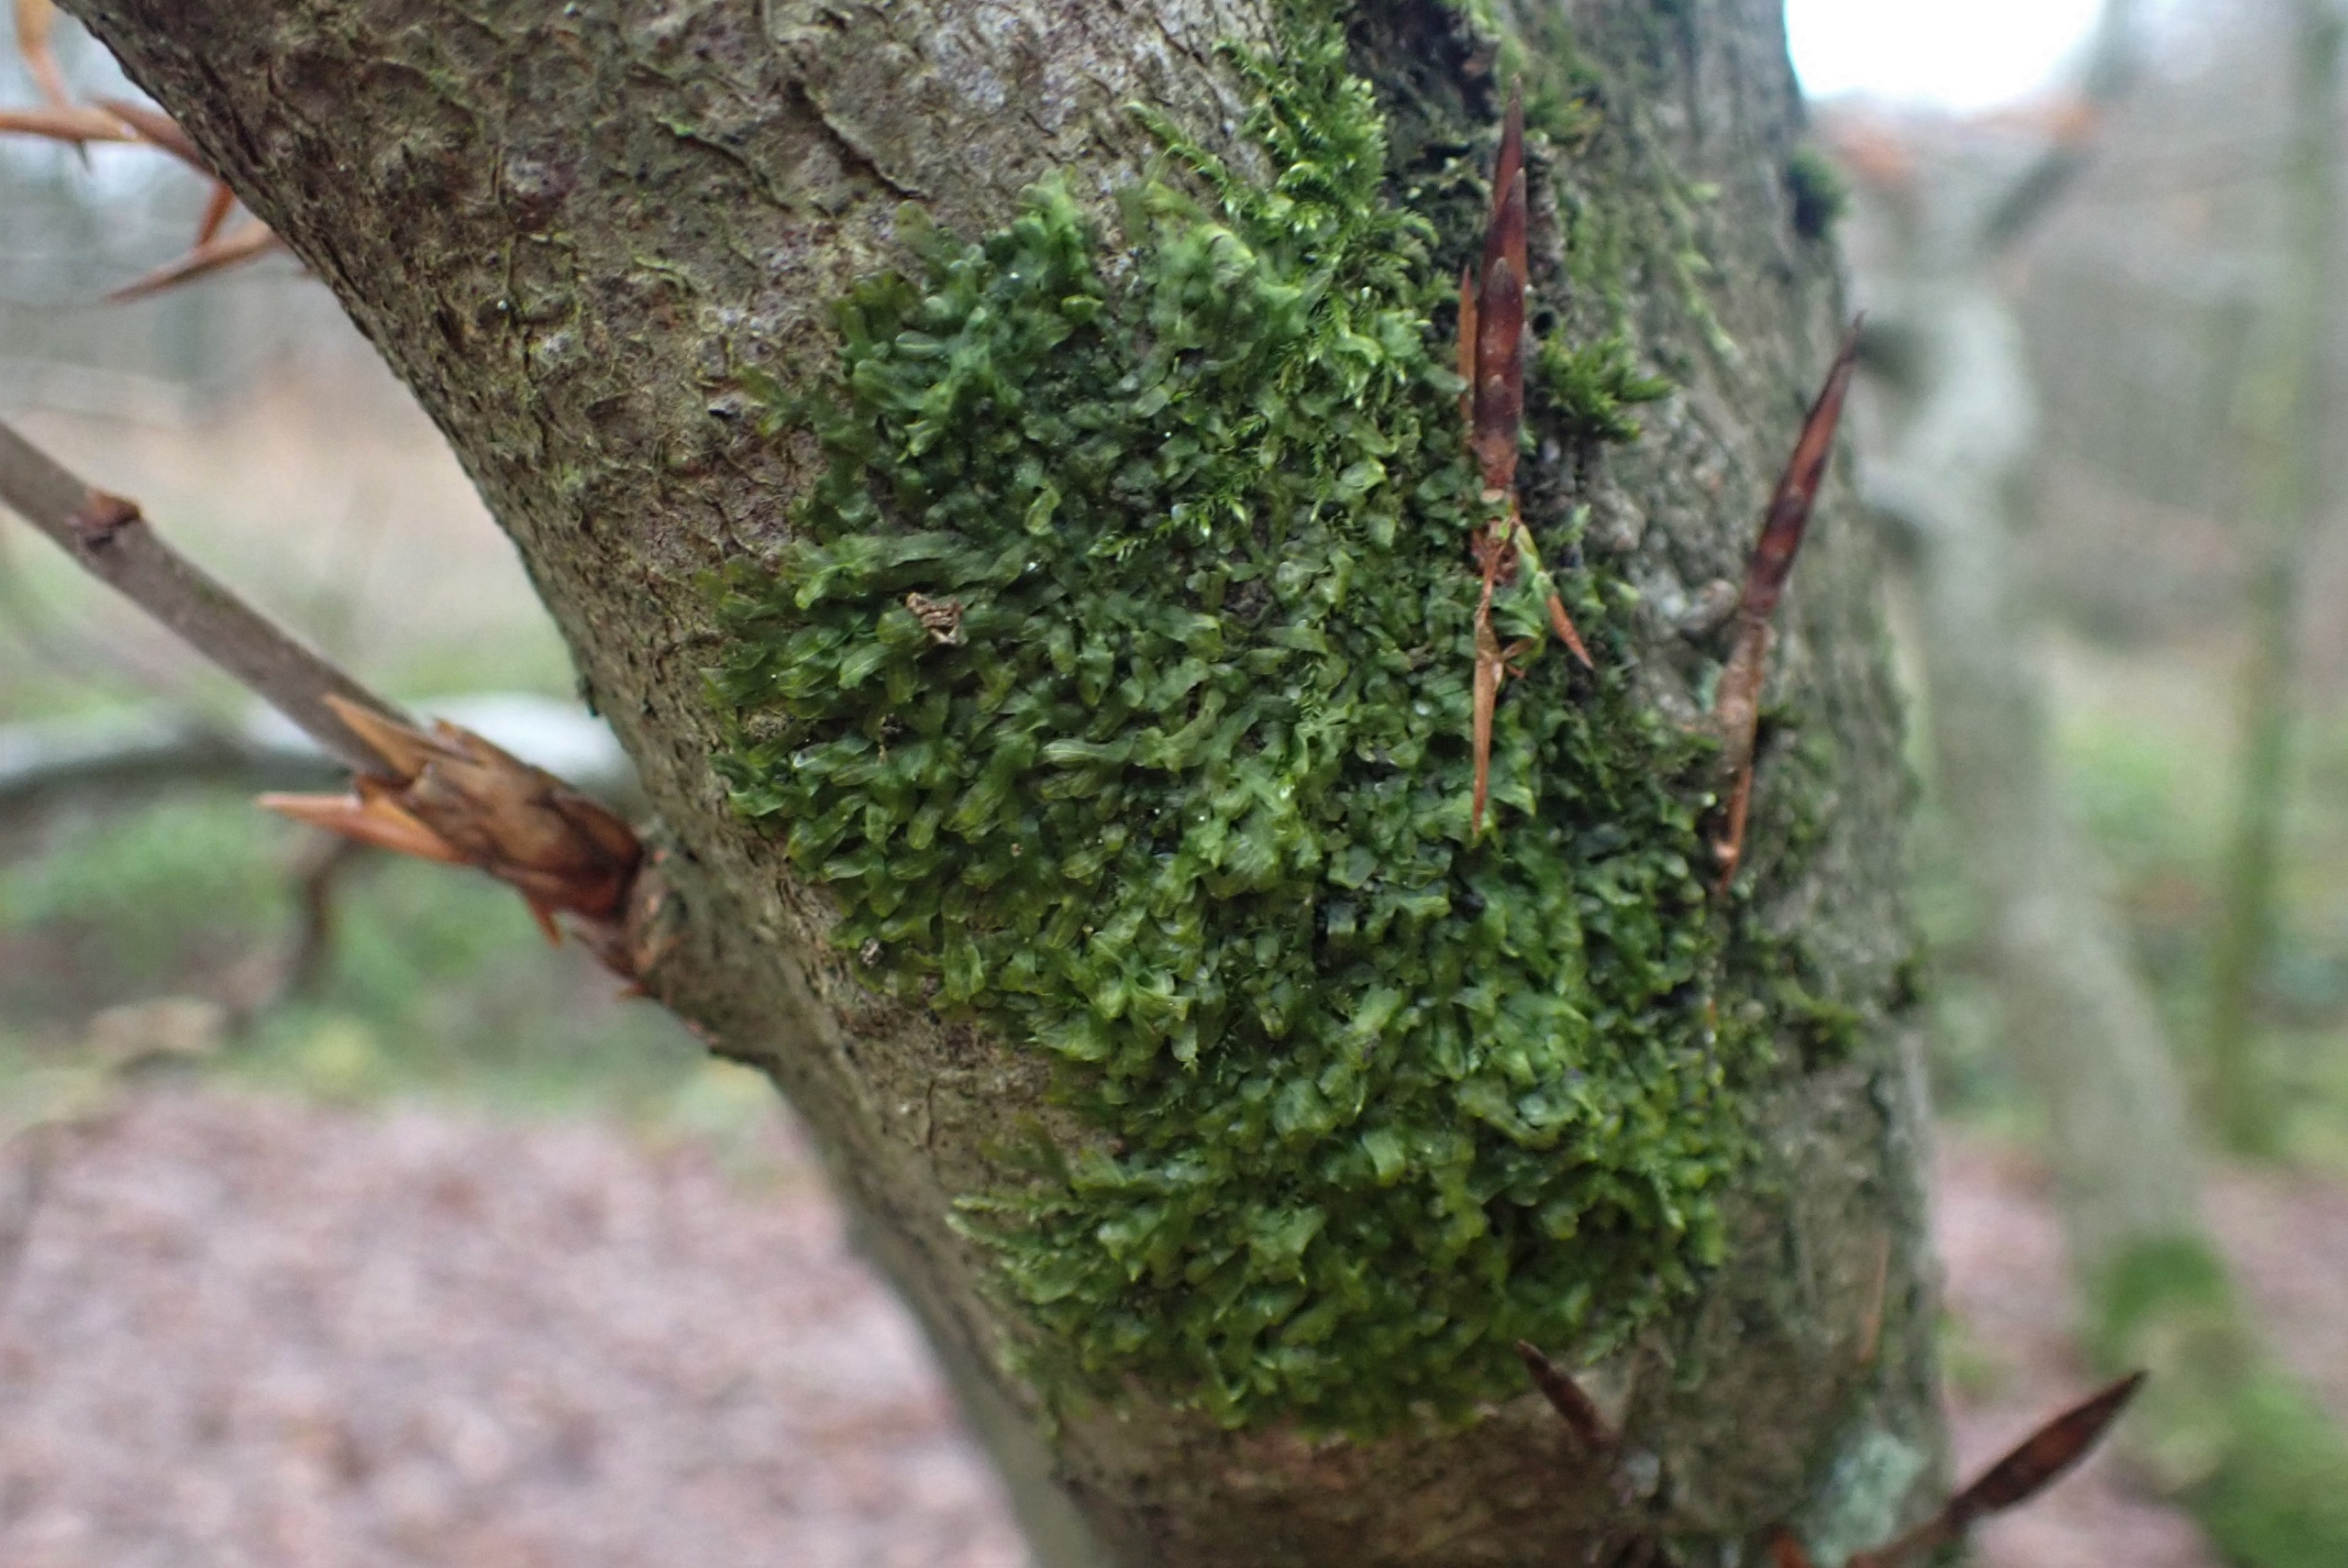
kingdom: Plantae
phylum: Marchantiophyta
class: Jungermanniopsida
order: Metzgeriales
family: Metzgeriaceae
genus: Metzgeria
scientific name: Metzgeria furcata
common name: Almindelig gaffelløv
